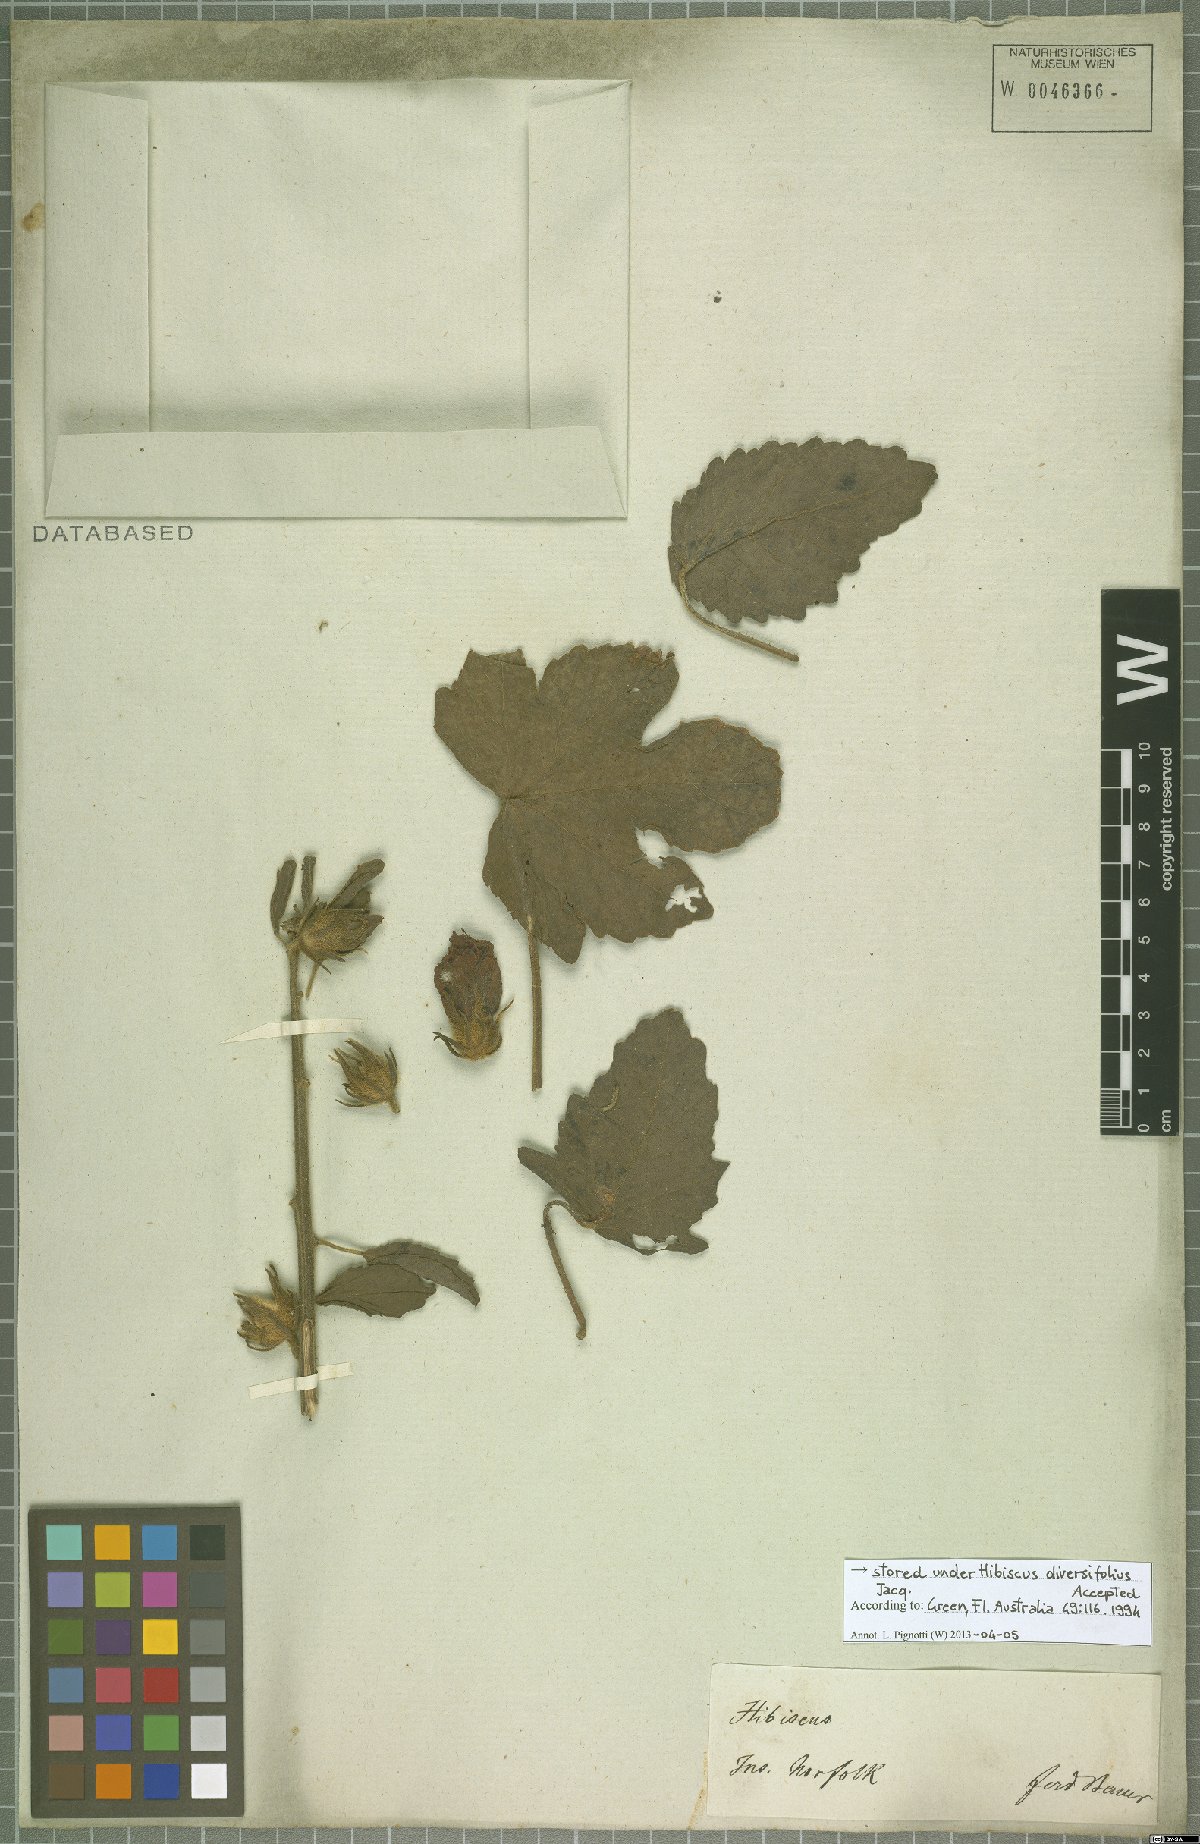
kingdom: Plantae
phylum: Tracheophyta
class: Magnoliopsida
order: Malvales
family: Malvaceae
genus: Hibiscus
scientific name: Hibiscus diversifolius
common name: Cape hibiscus
